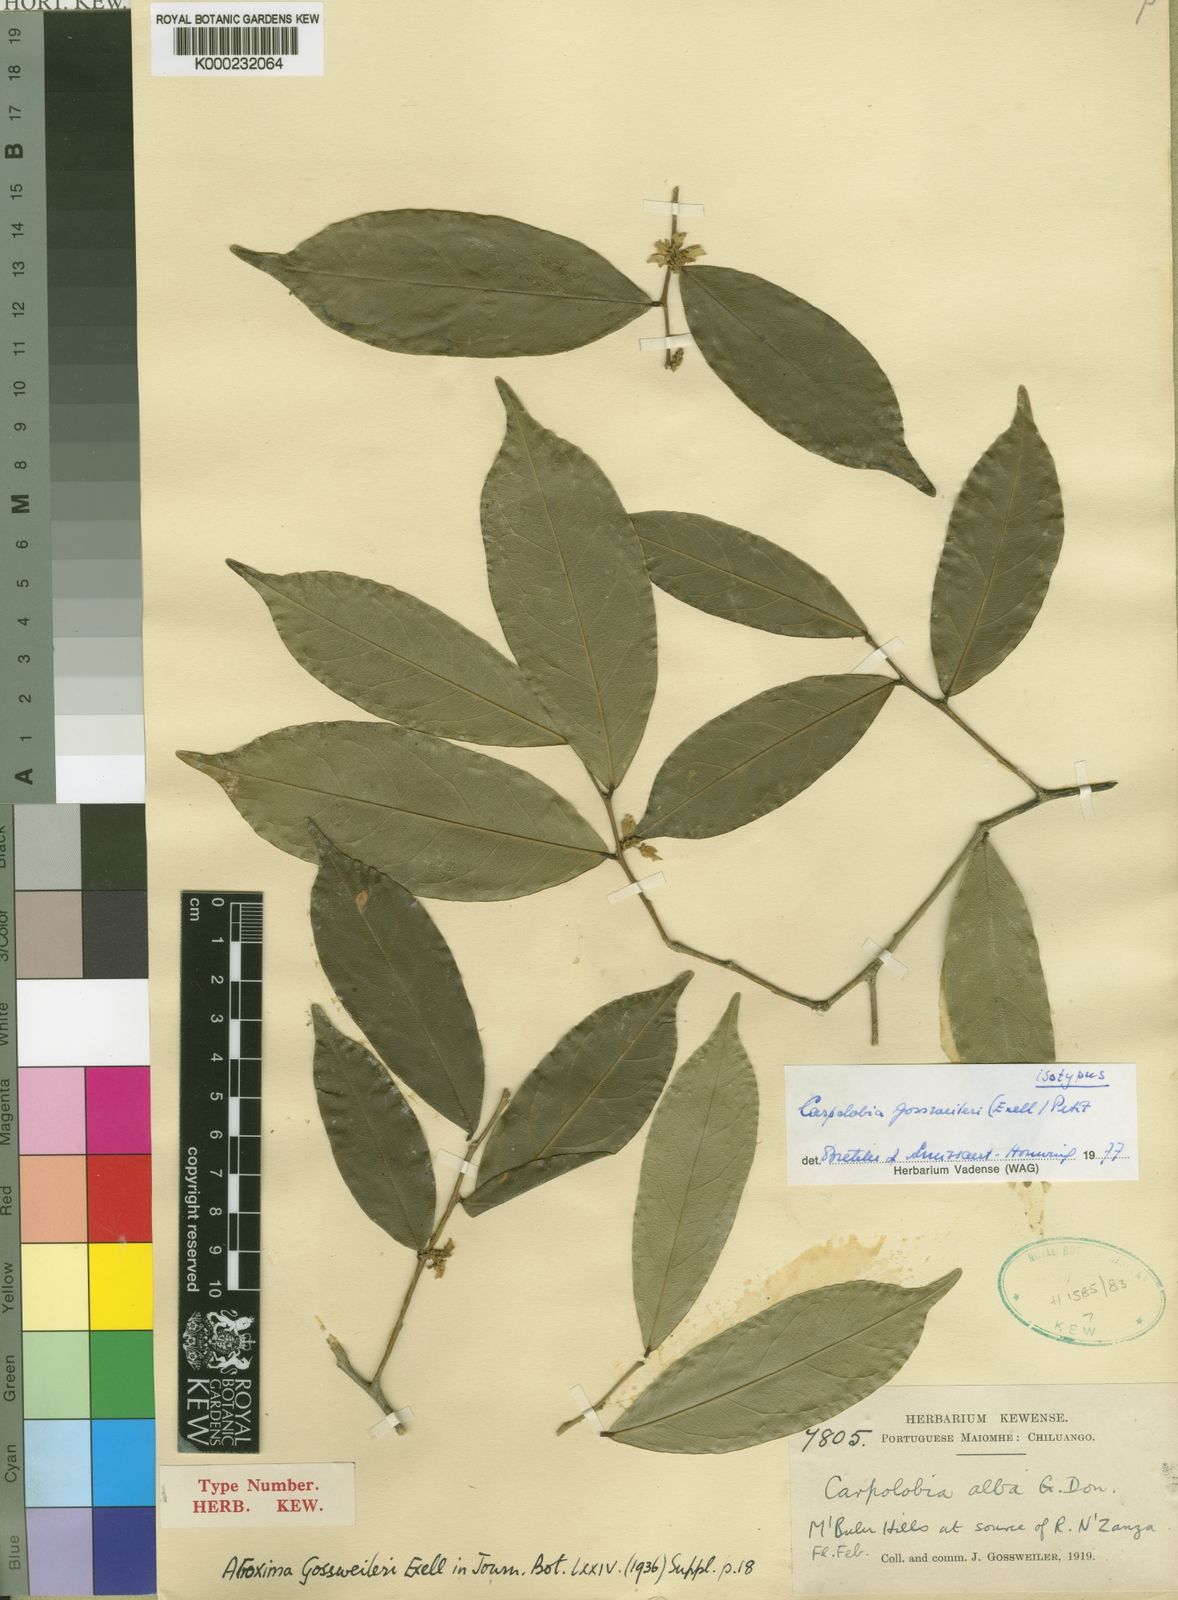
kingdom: Plantae
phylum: Tracheophyta
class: Magnoliopsida
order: Fabales
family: Polygalaceae
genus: Carpolobia
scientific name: Carpolobia gossweileri
